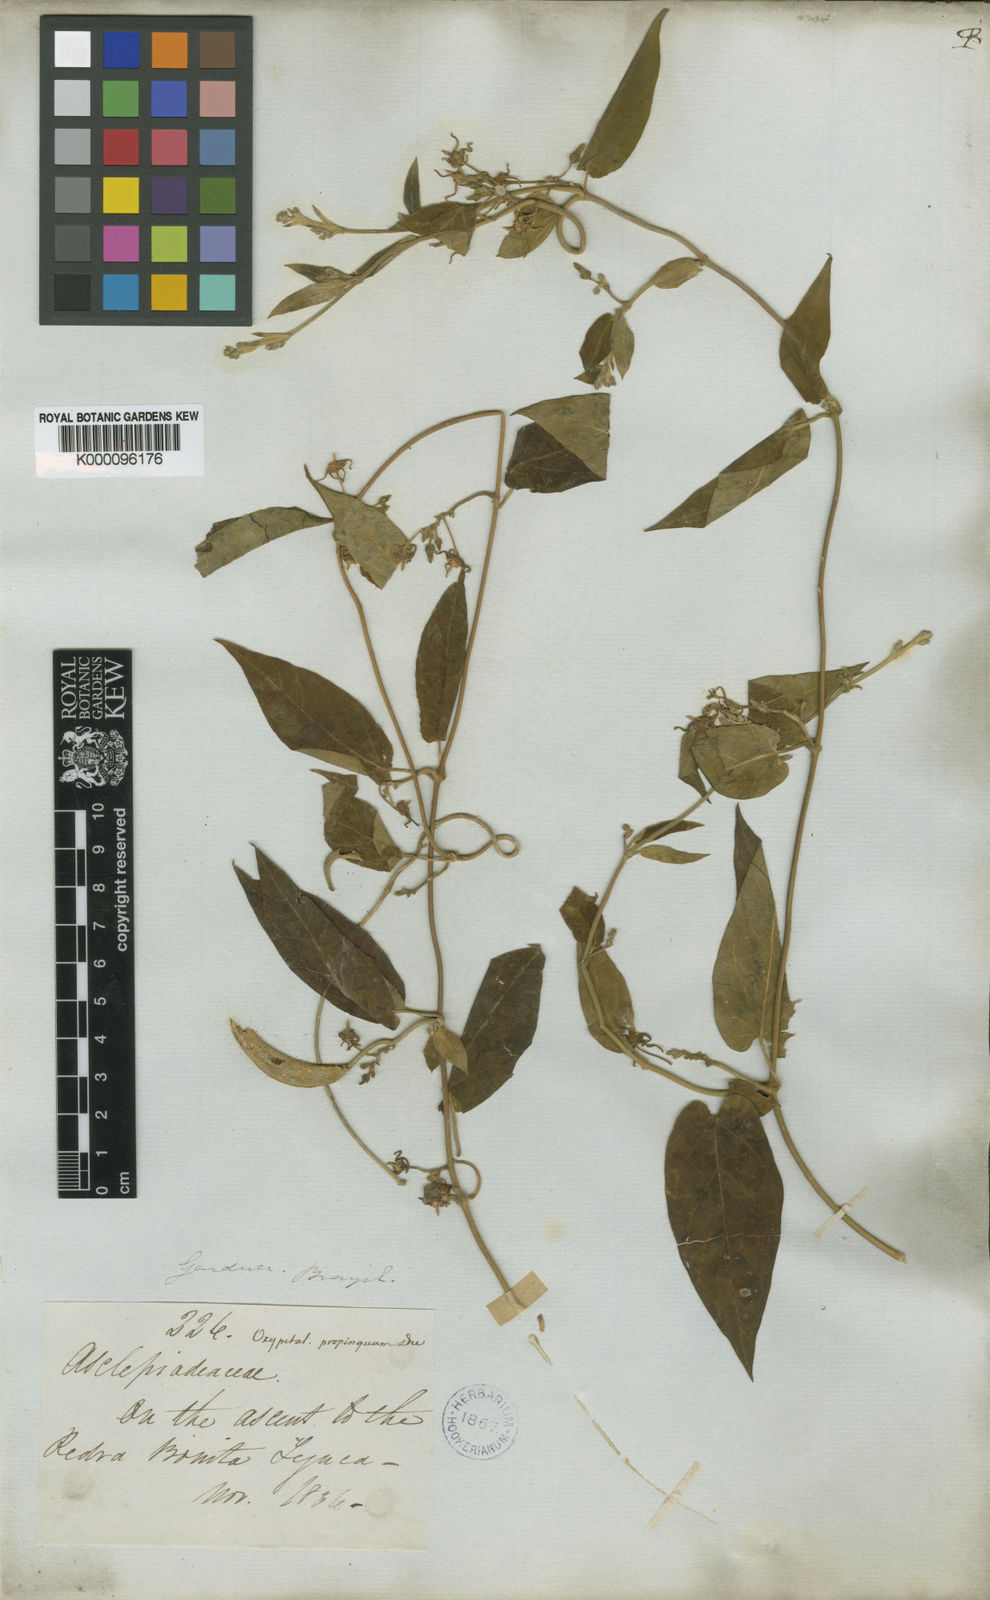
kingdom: Plantae
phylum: Tracheophyta
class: Magnoliopsida
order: Gentianales
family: Apocynaceae
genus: Oxypetalum
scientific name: Oxypetalum pilosum
